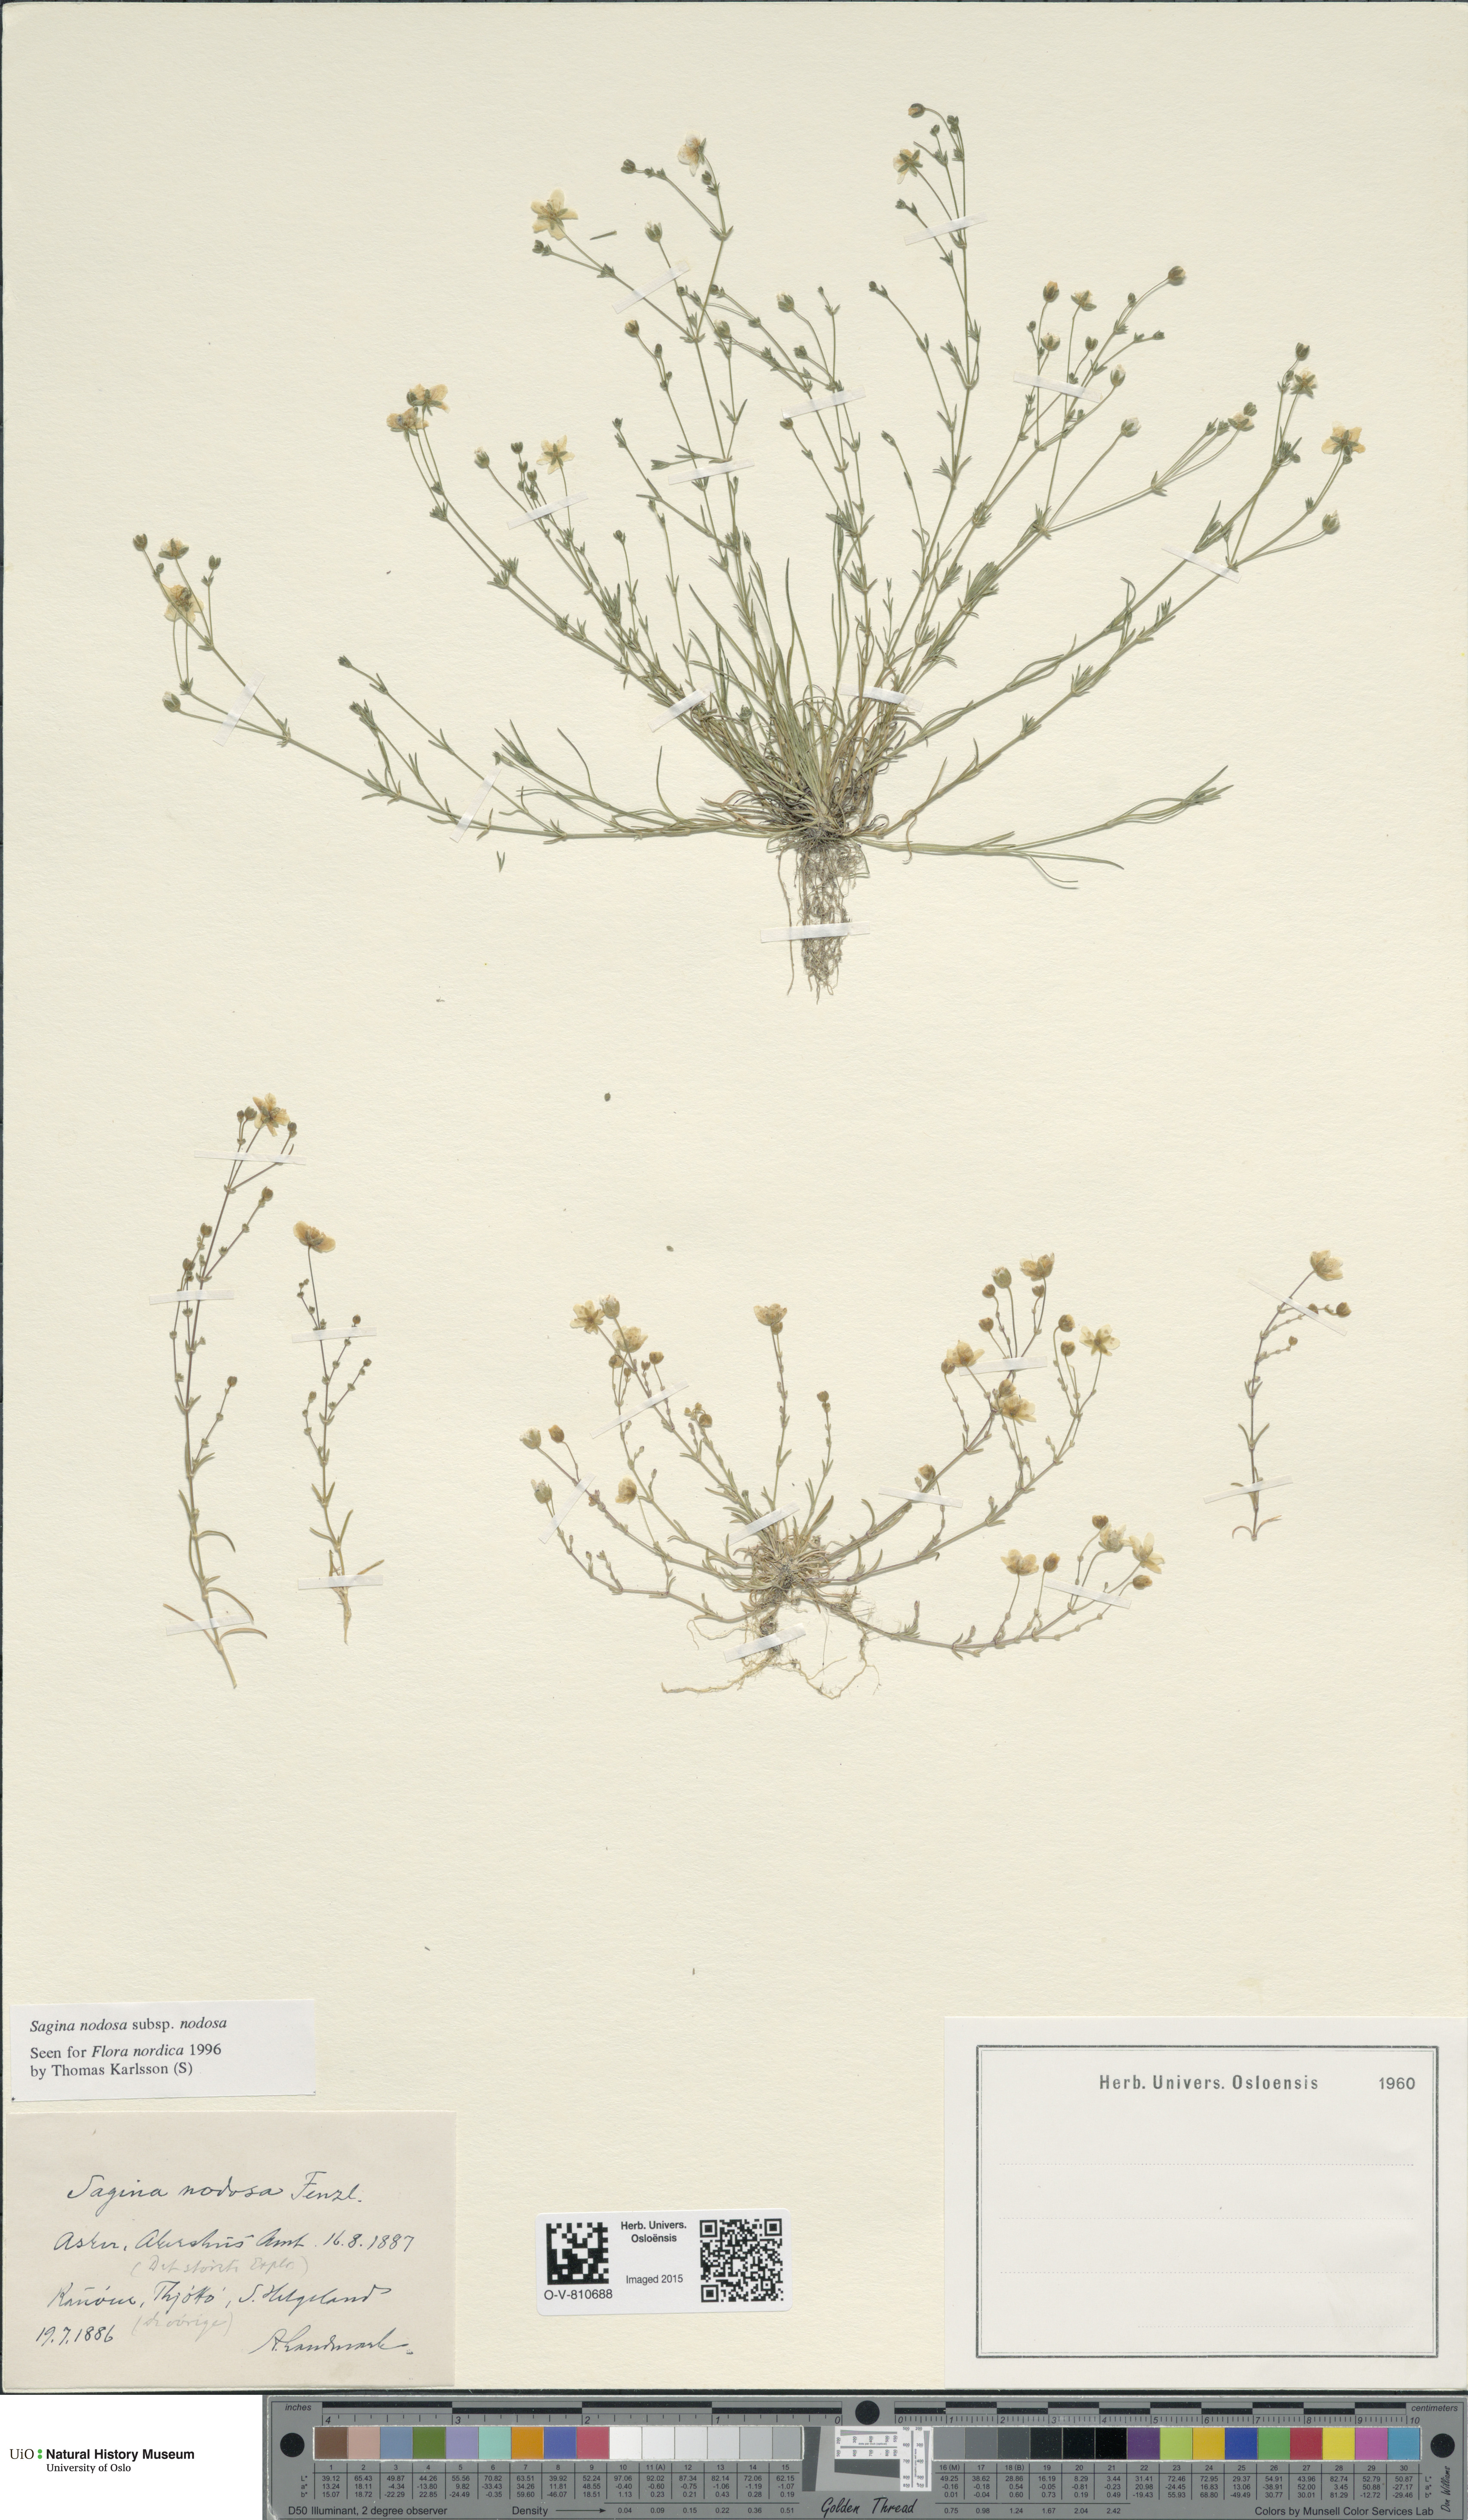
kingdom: Plantae
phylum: Tracheophyta
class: Magnoliopsida
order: Caryophyllales
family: Caryophyllaceae
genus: Sagina
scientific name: Sagina nodosa
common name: Knotted pearlwort
